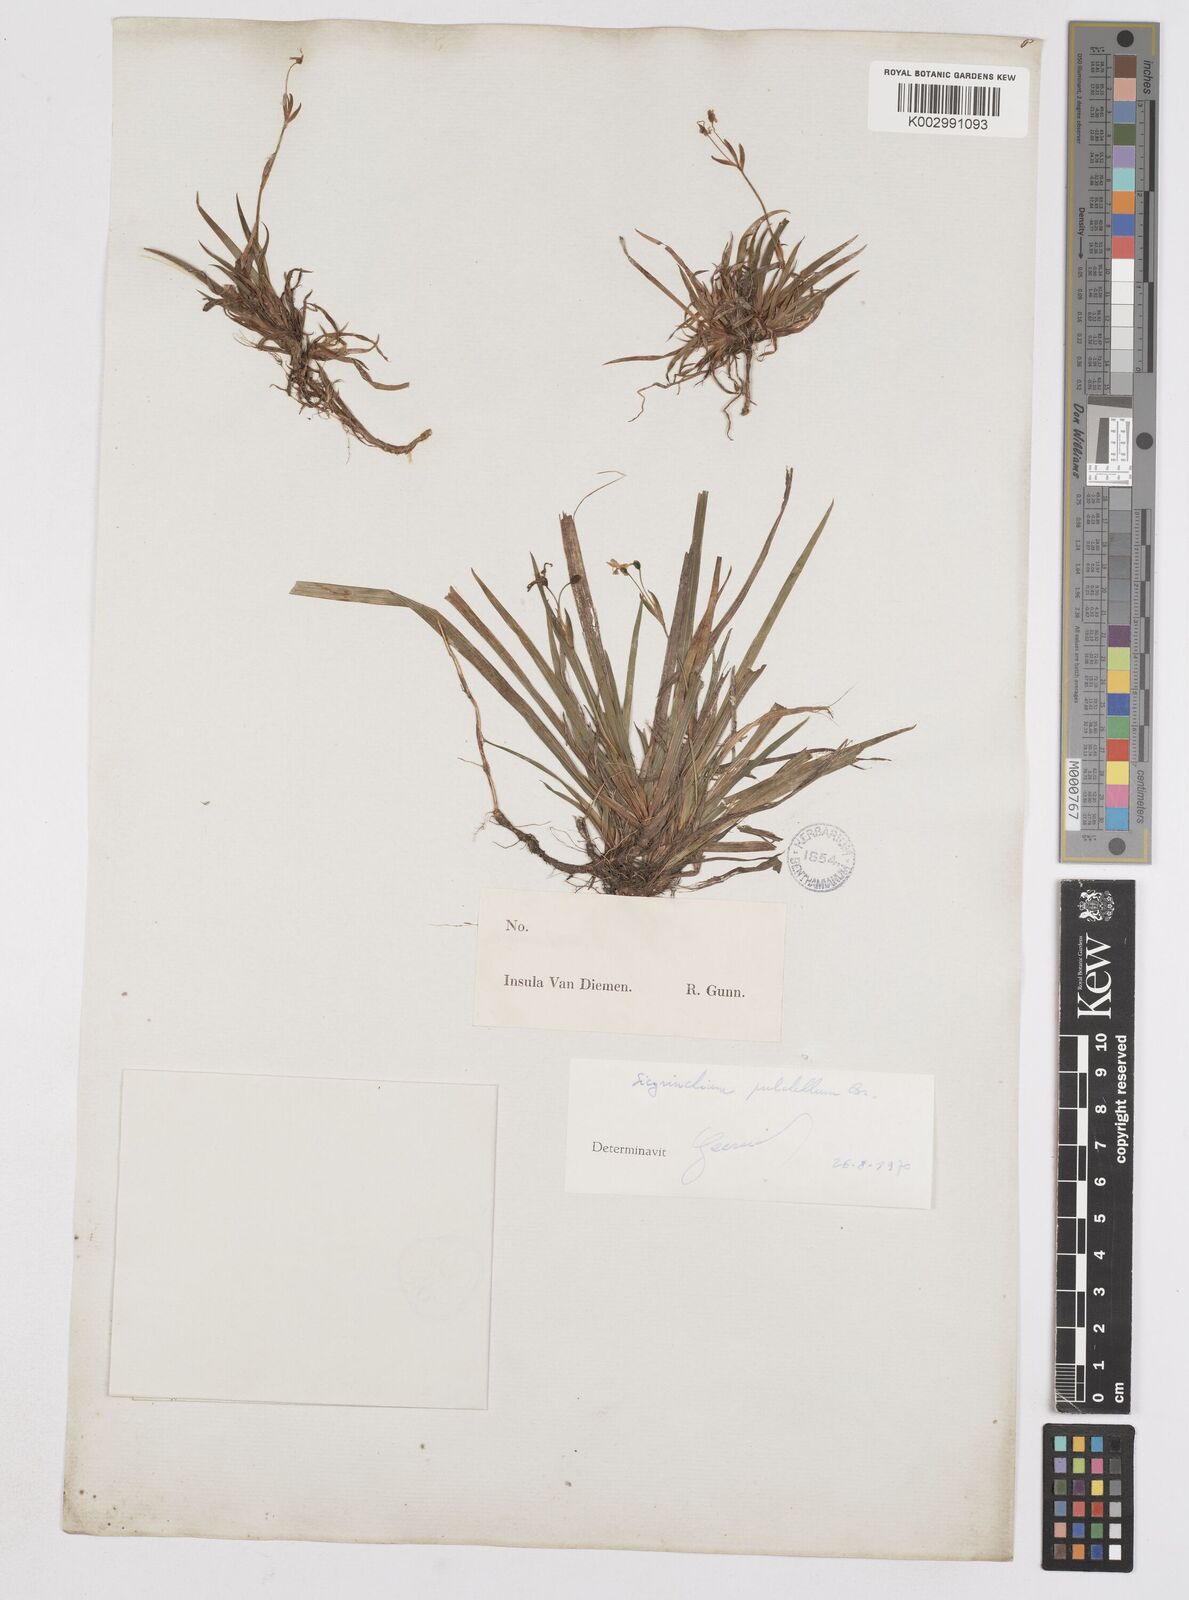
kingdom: Plantae
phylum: Tracheophyta
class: Liliopsida
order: Asparagales
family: Iridaceae
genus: Libertia
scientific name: Libertia pulchella
